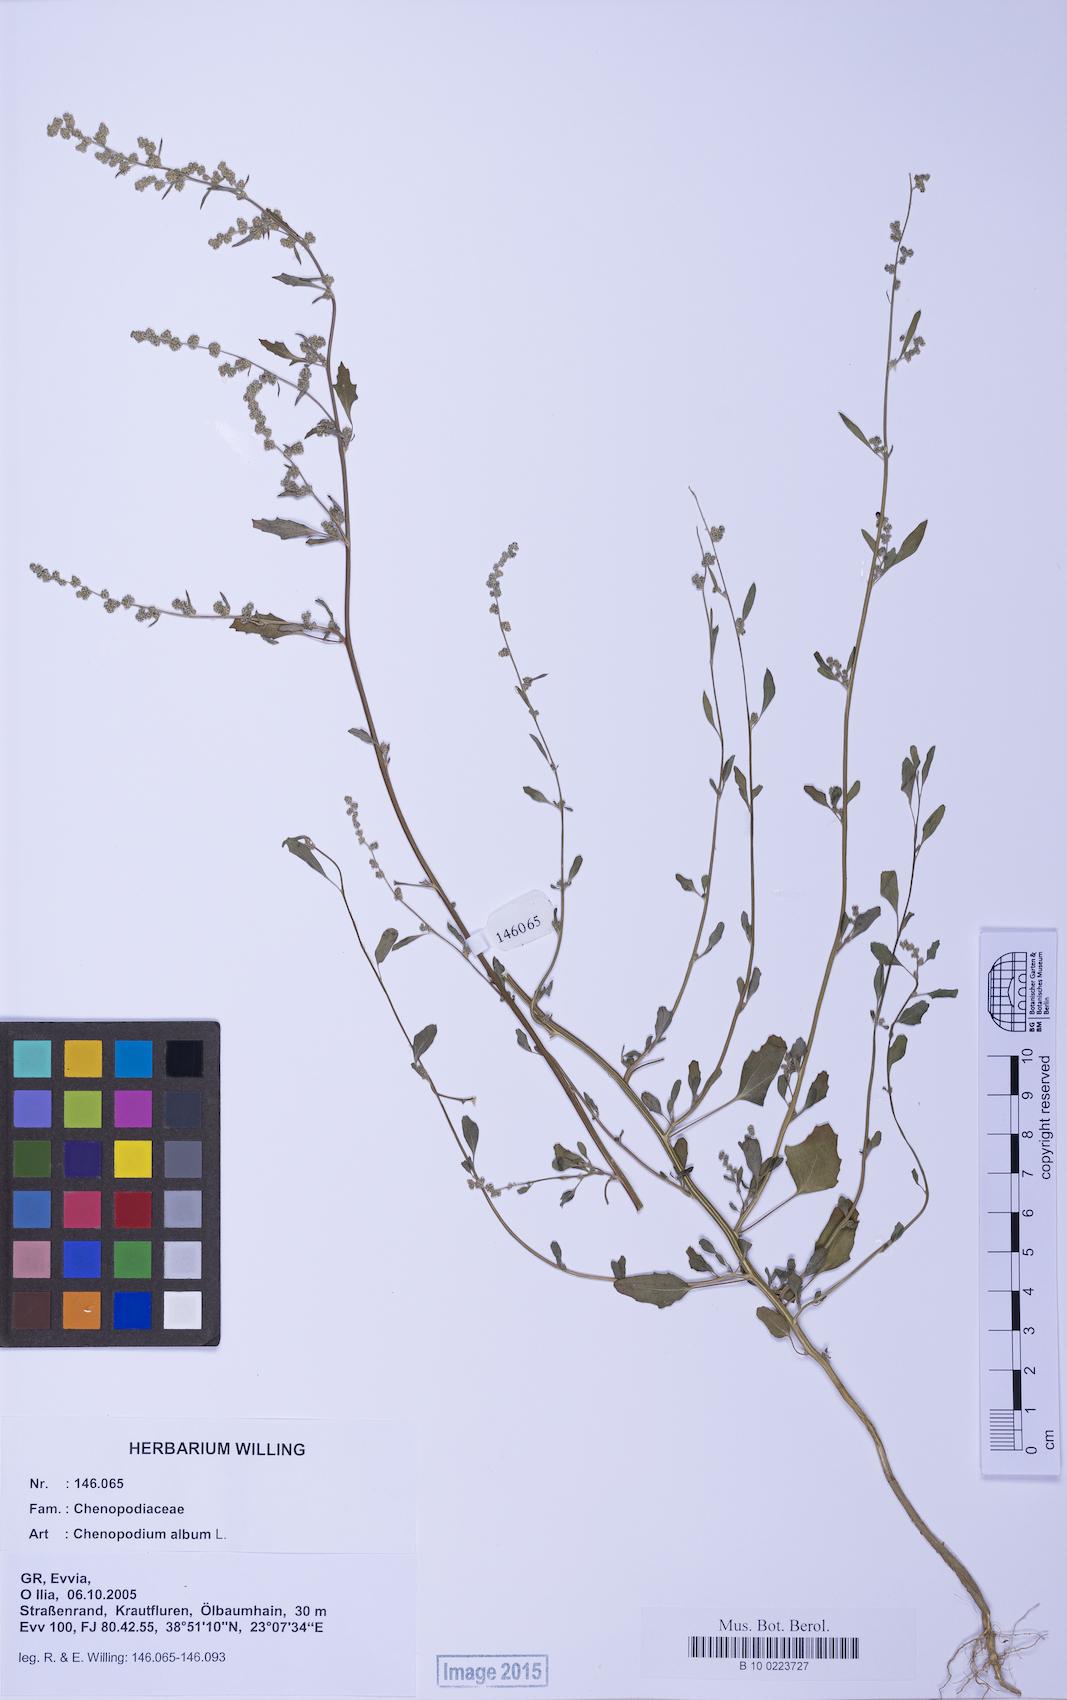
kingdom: Plantae
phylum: Tracheophyta
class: Magnoliopsida
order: Caryophyllales
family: Amaranthaceae
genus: Chenopodium
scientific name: Chenopodium album
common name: Fat-hen
